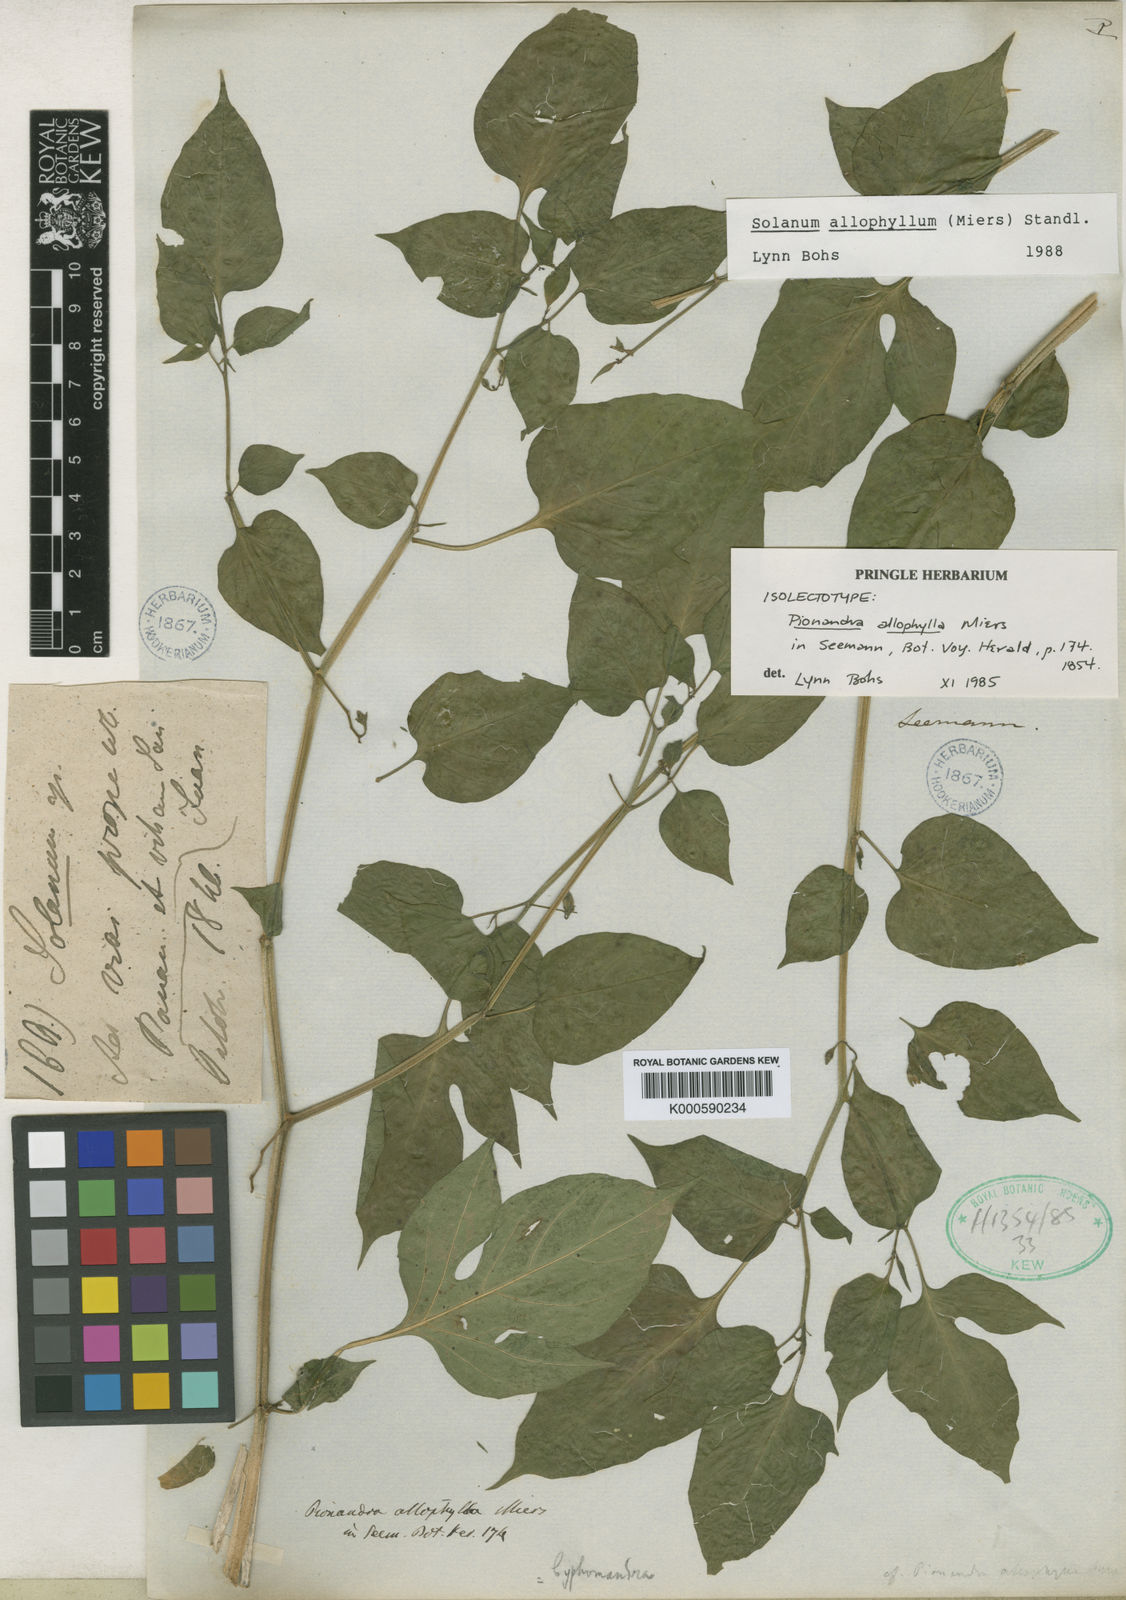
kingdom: Plantae
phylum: Tracheophyta
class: Magnoliopsida
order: Solanales
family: Solanaceae
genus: Solanum
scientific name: Solanum allophyllum
